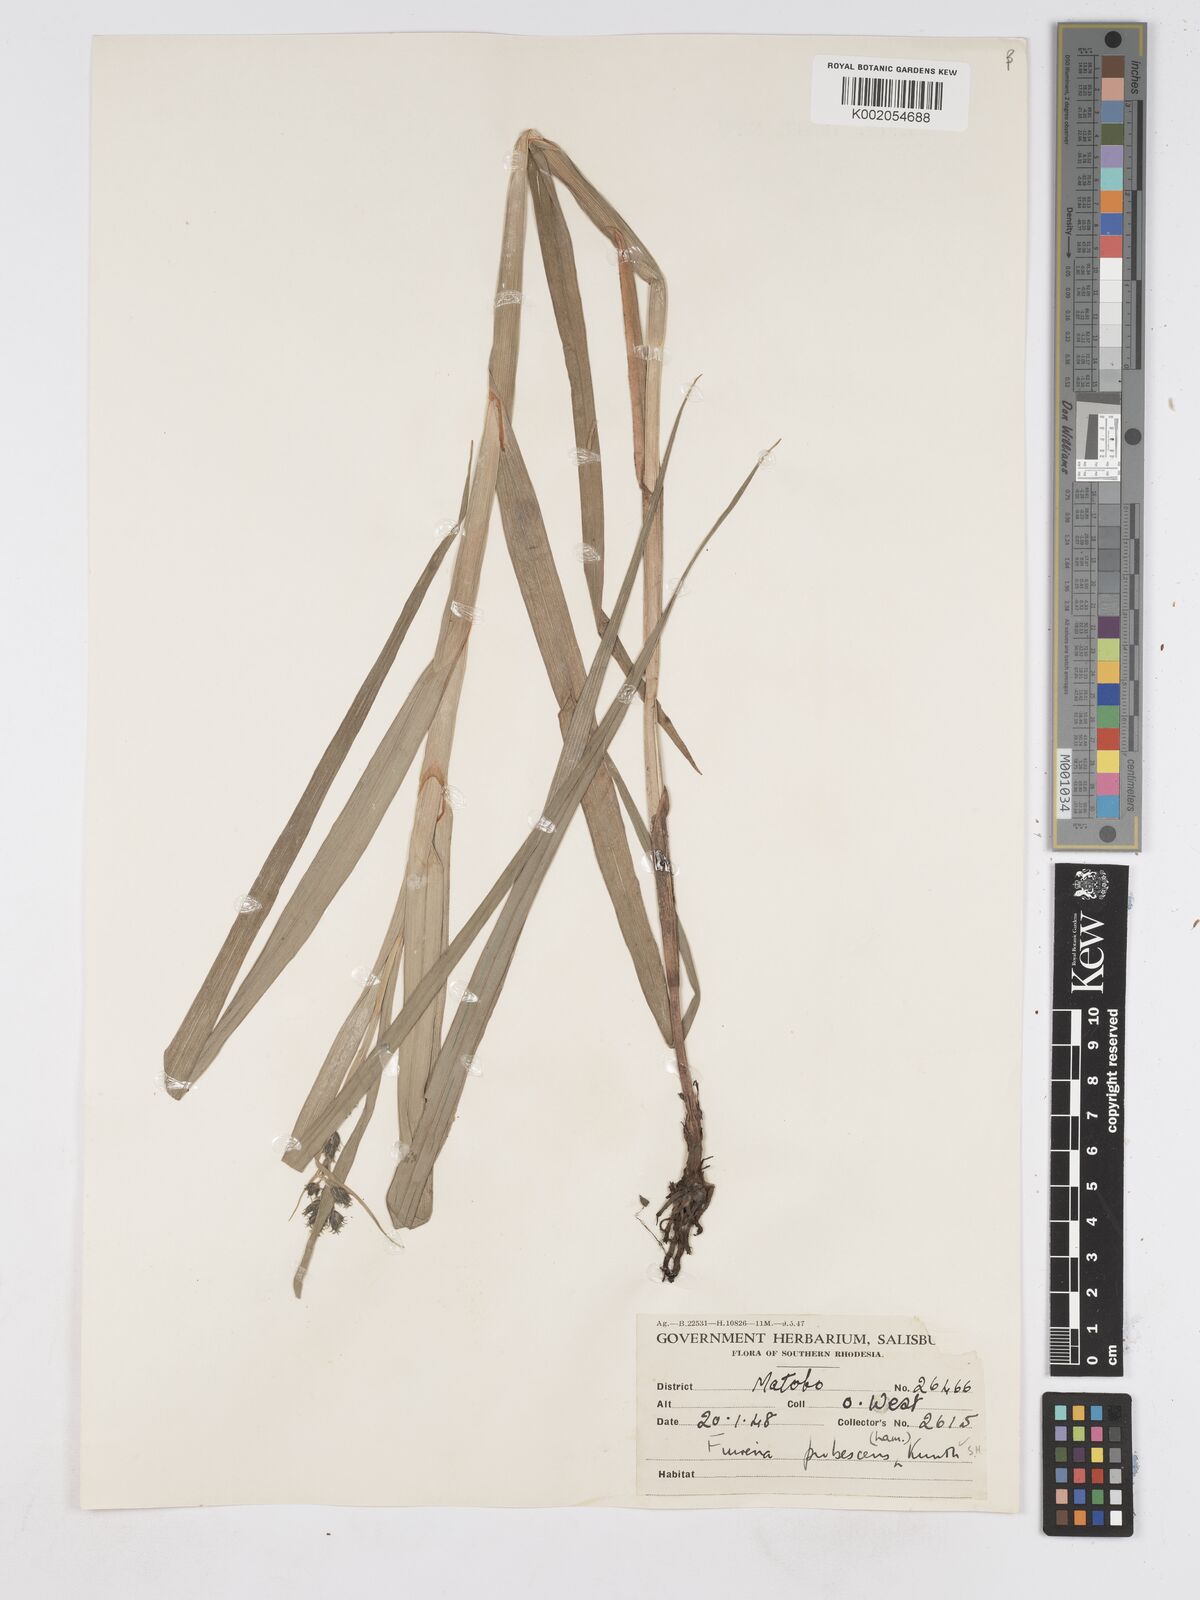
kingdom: Plantae
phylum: Tracheophyta
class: Liliopsida
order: Poales
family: Cyperaceae
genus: Fuirena
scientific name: Fuirena pachyrrhiza
